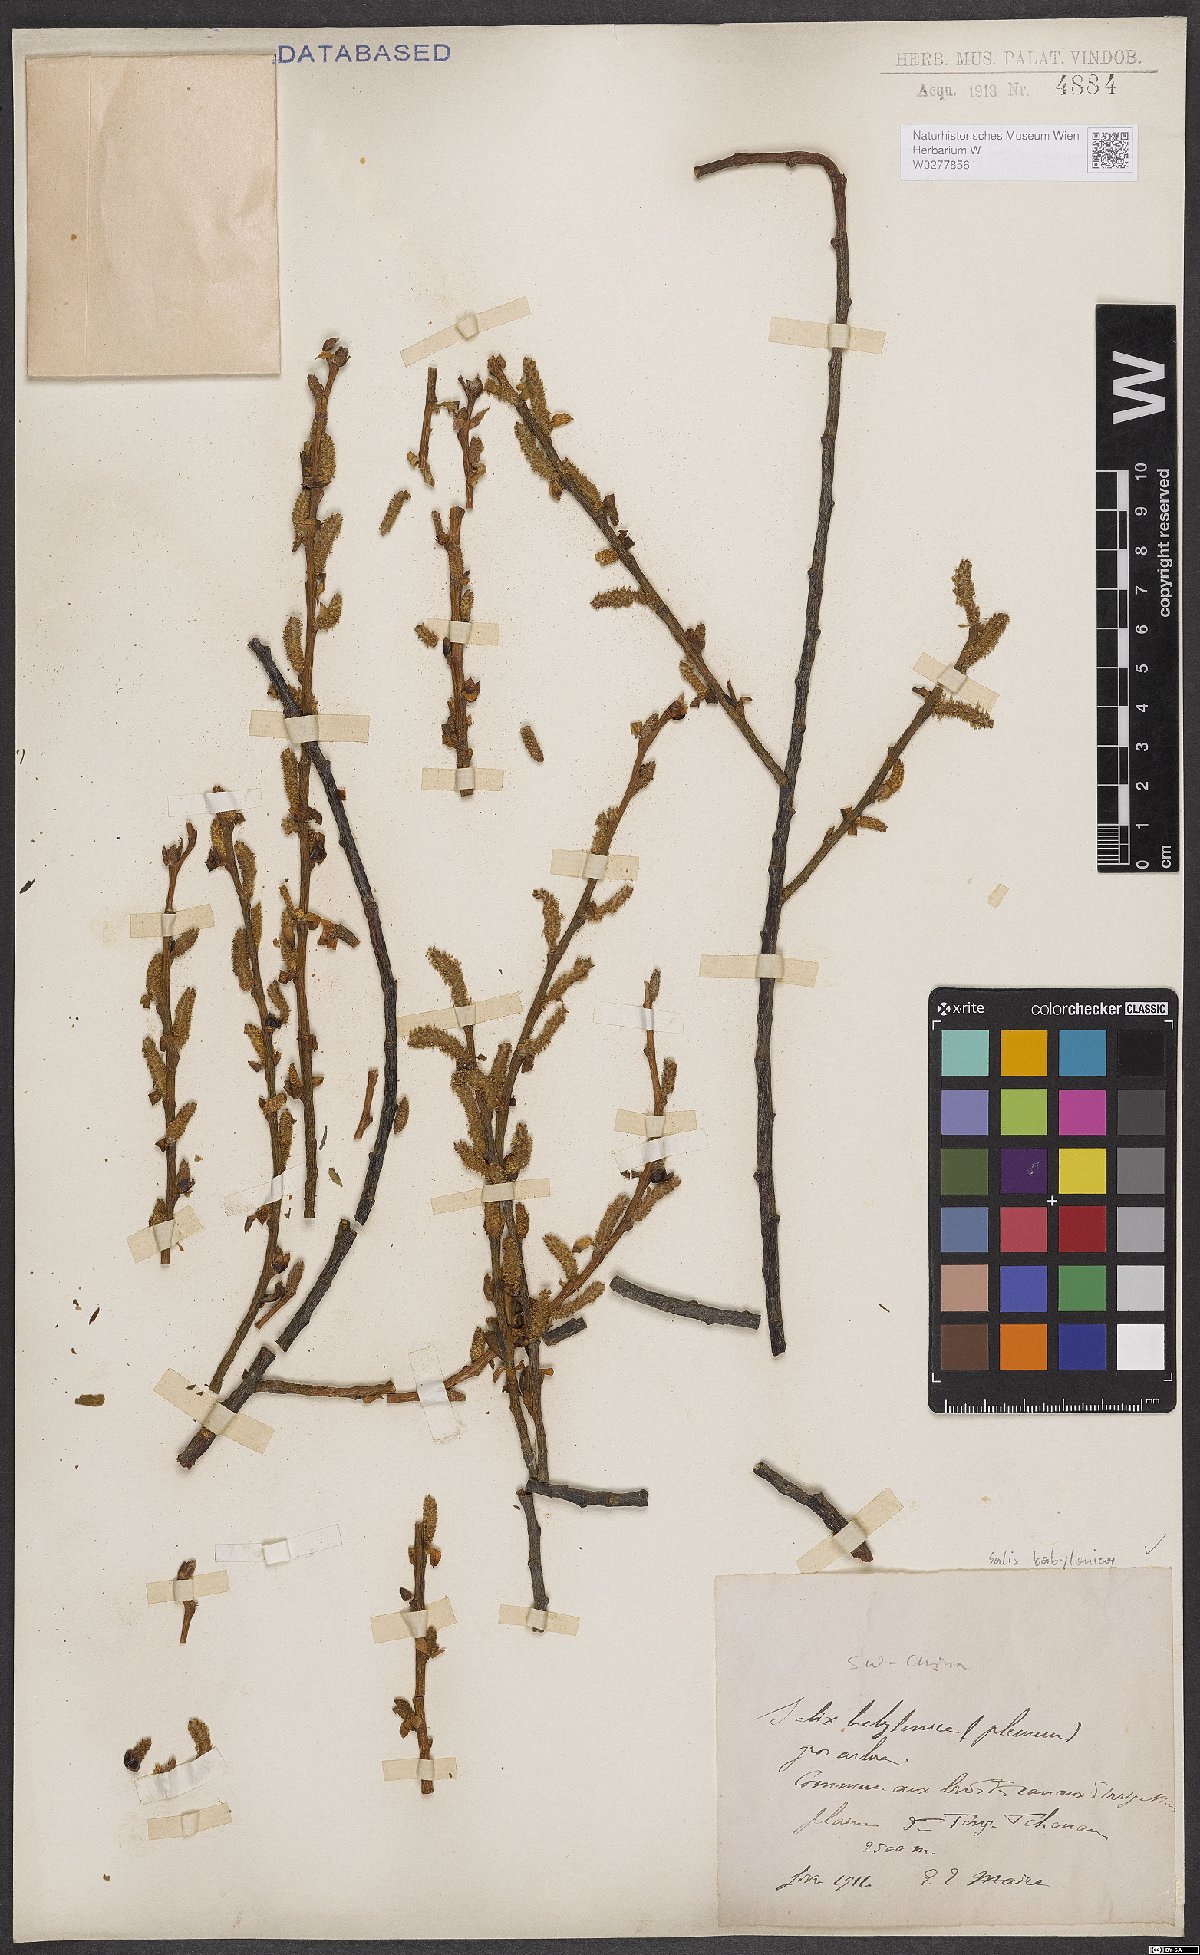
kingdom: Plantae
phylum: Tracheophyta
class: Magnoliopsida
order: Malpighiales
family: Salicaceae
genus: Salix
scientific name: Salix babylonica
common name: Weeping willow
